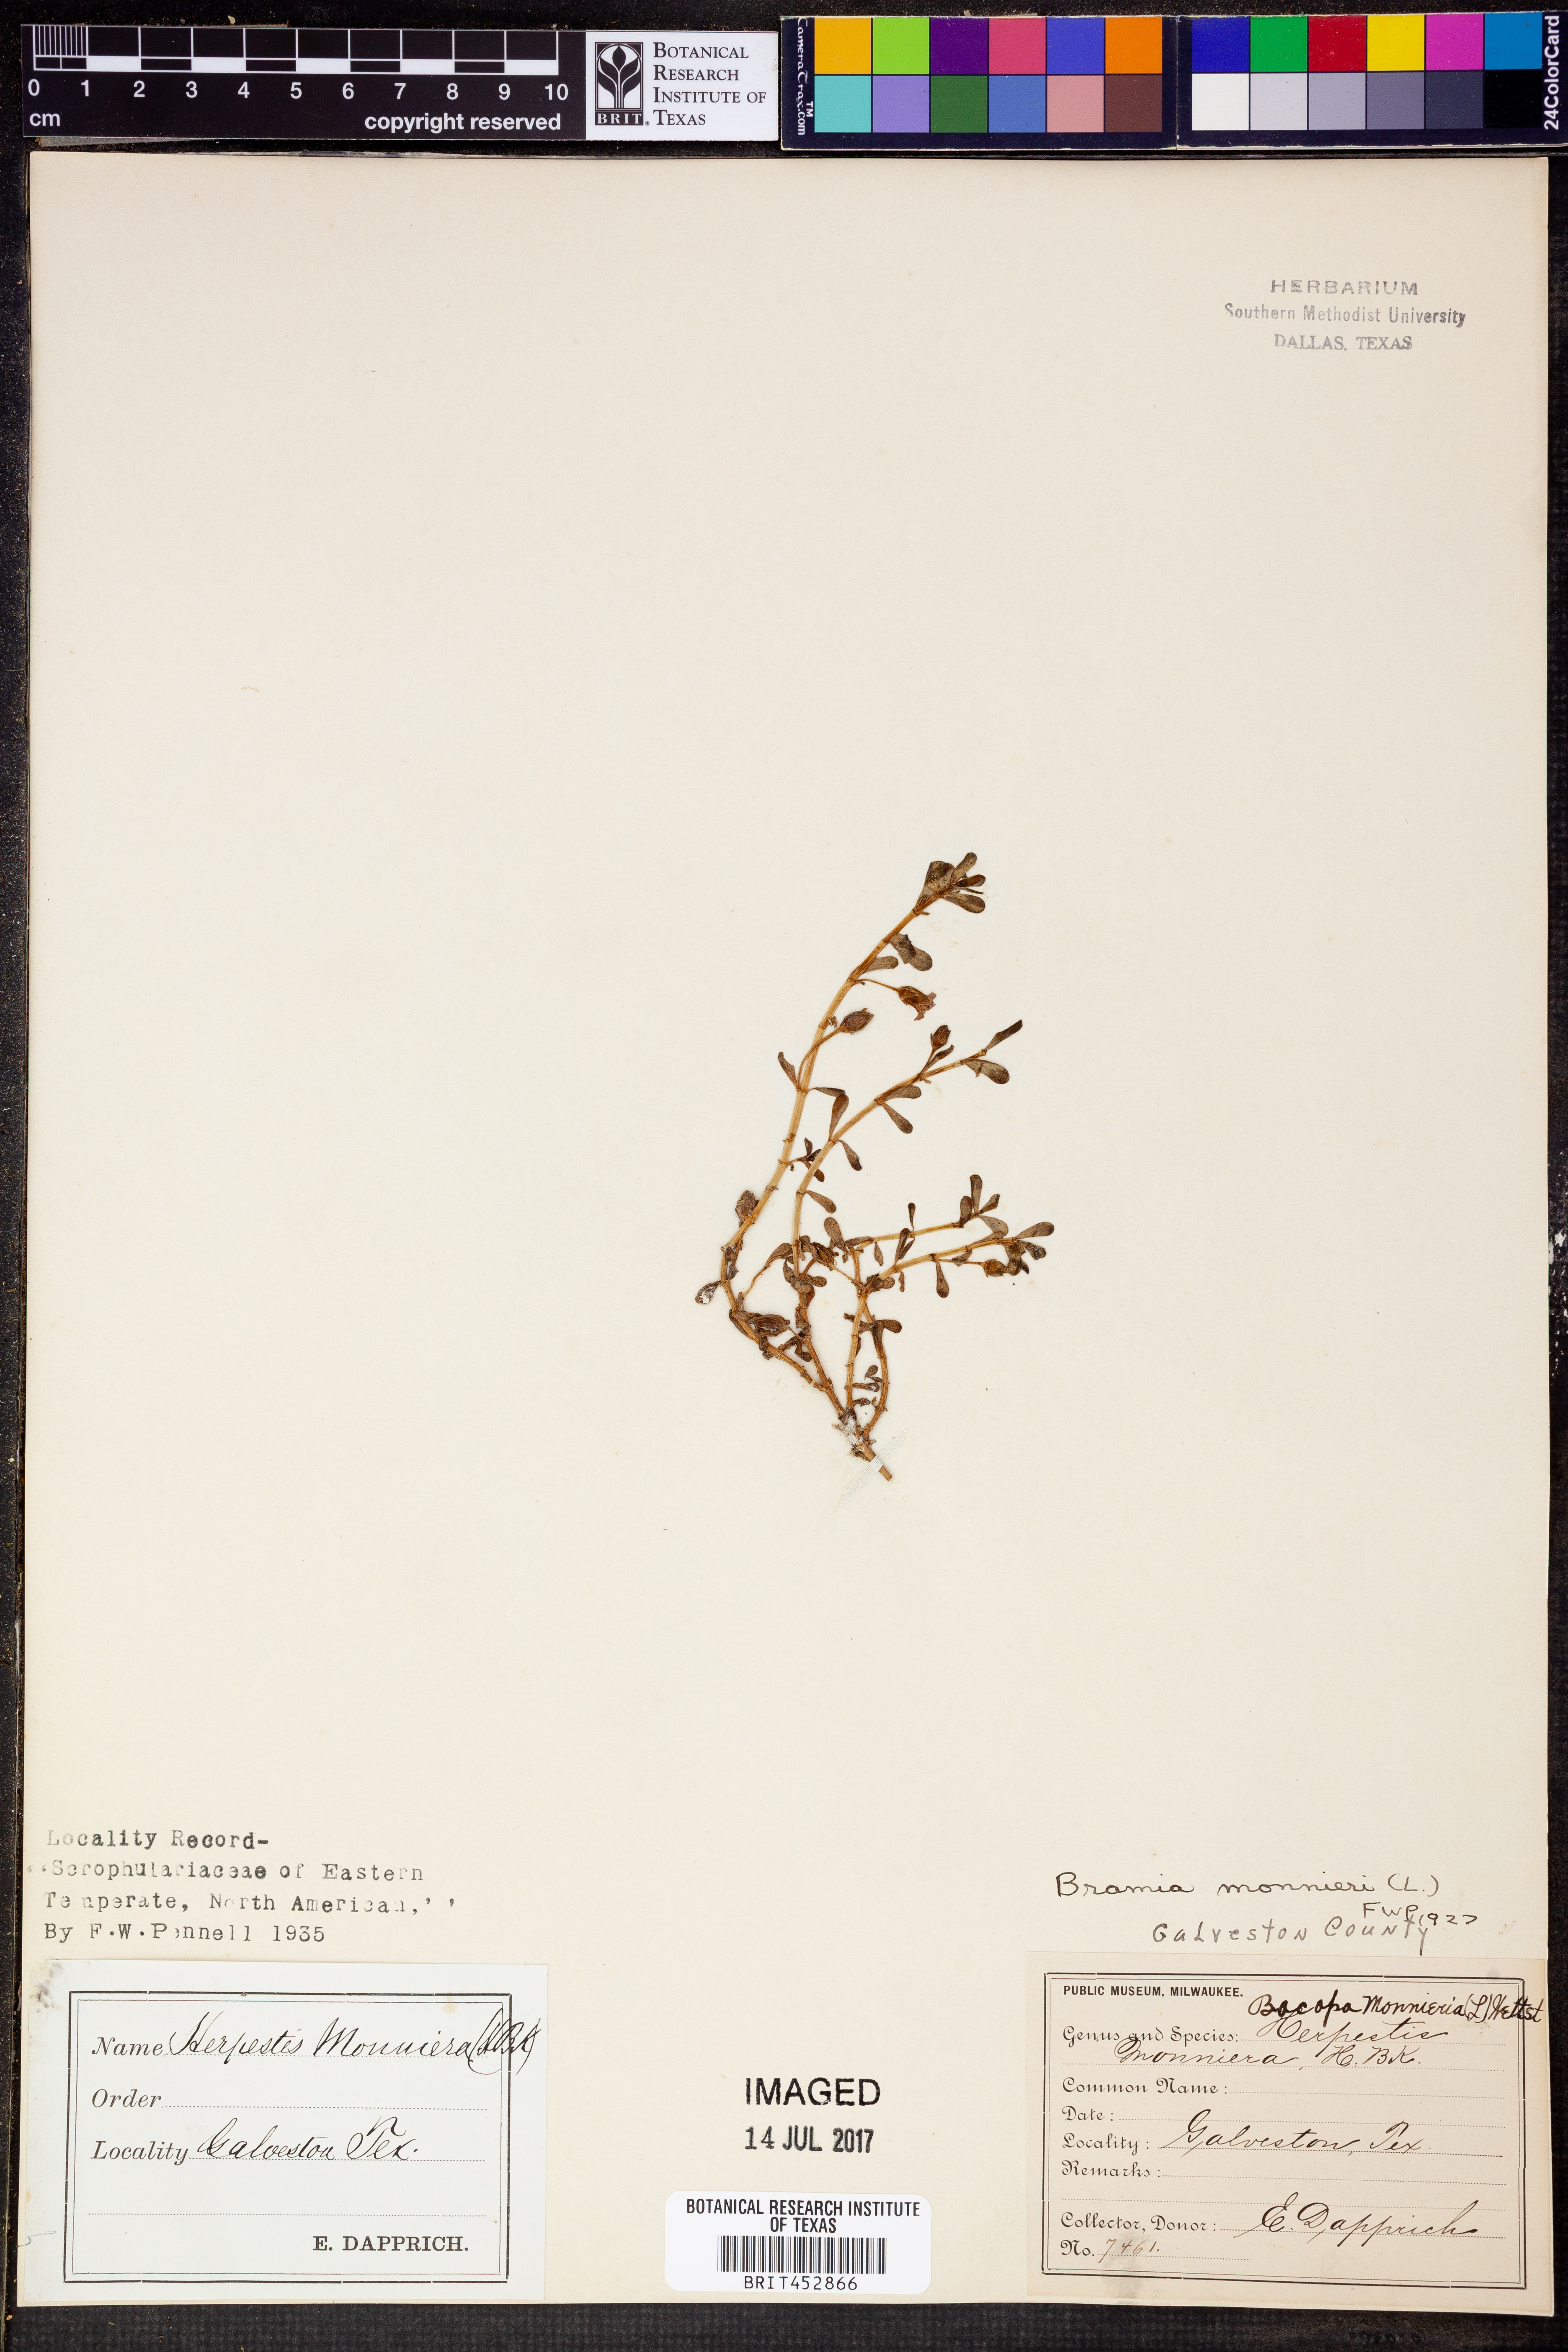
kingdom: Plantae
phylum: Tracheophyta
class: Magnoliopsida
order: Lamiales
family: Plantaginaceae
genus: Bacopa
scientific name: Bacopa monnieri
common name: Indian-pennywort
